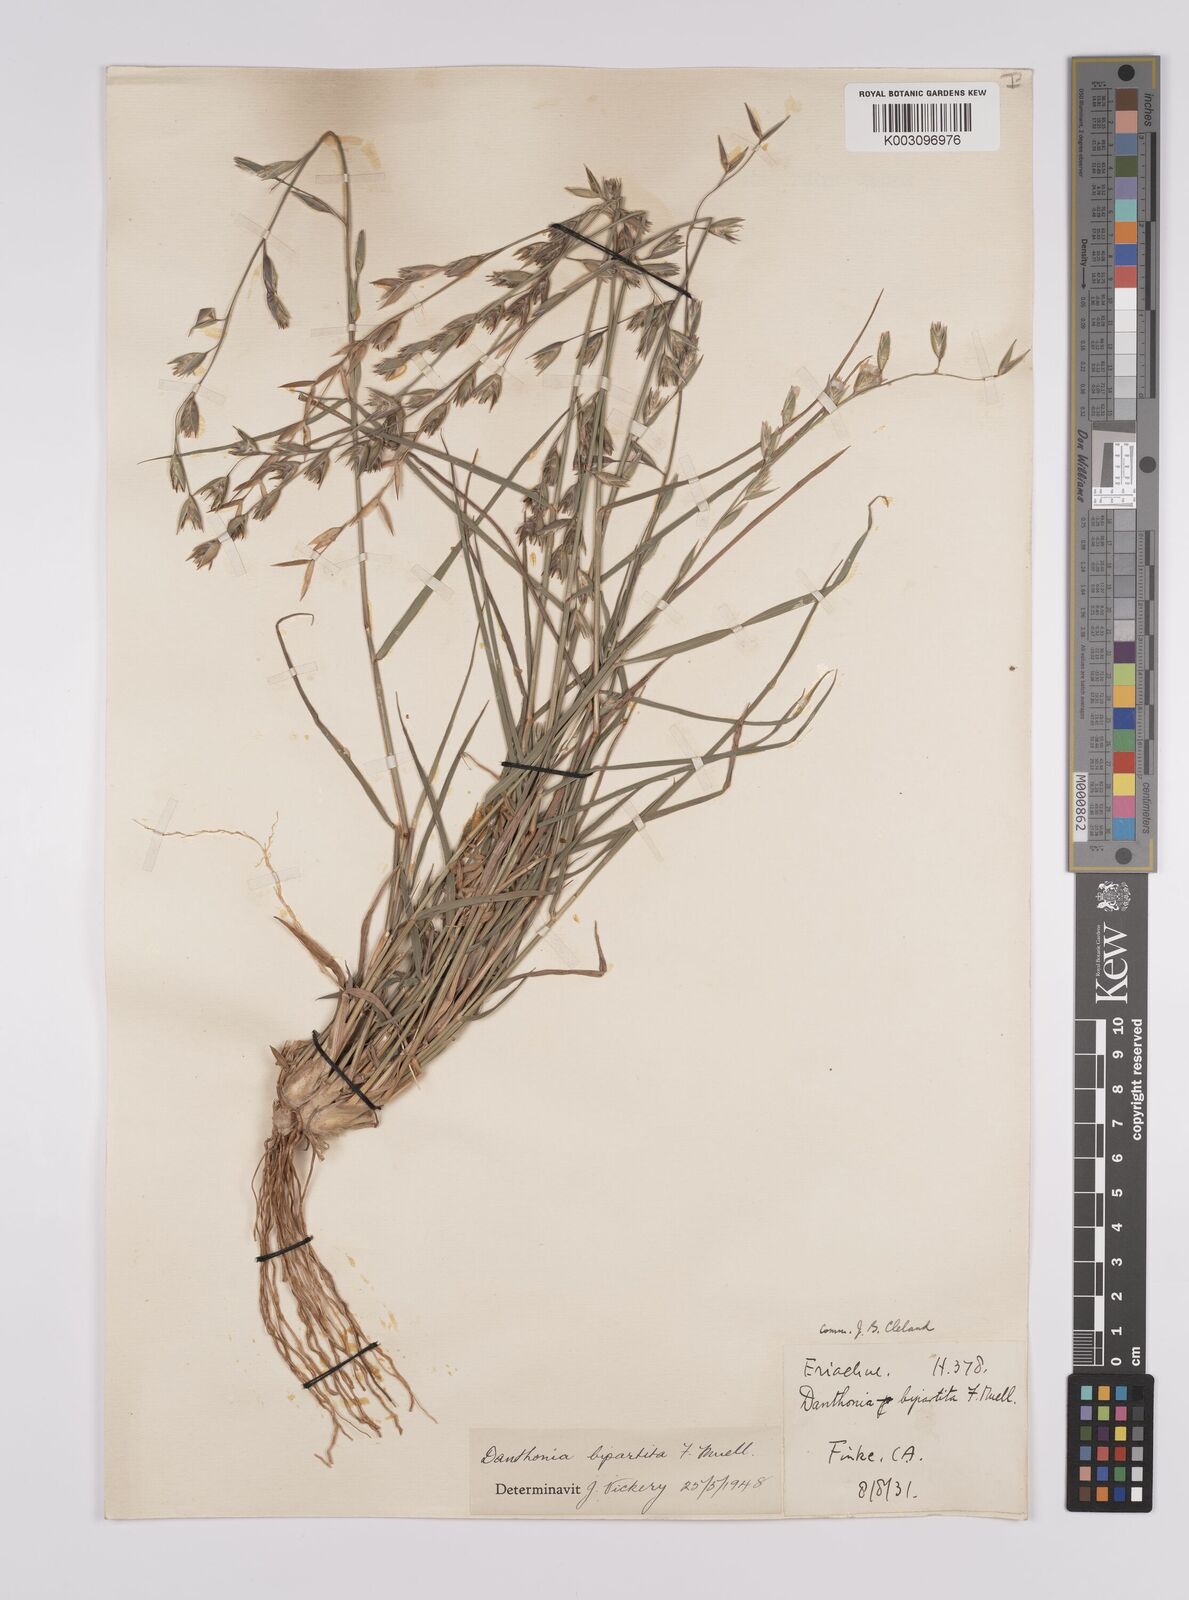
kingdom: Plantae
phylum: Tracheophyta
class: Liliopsida
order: Poales
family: Poaceae
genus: Monachather
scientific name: Monachather paradoxus
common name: Bandicoot grass
